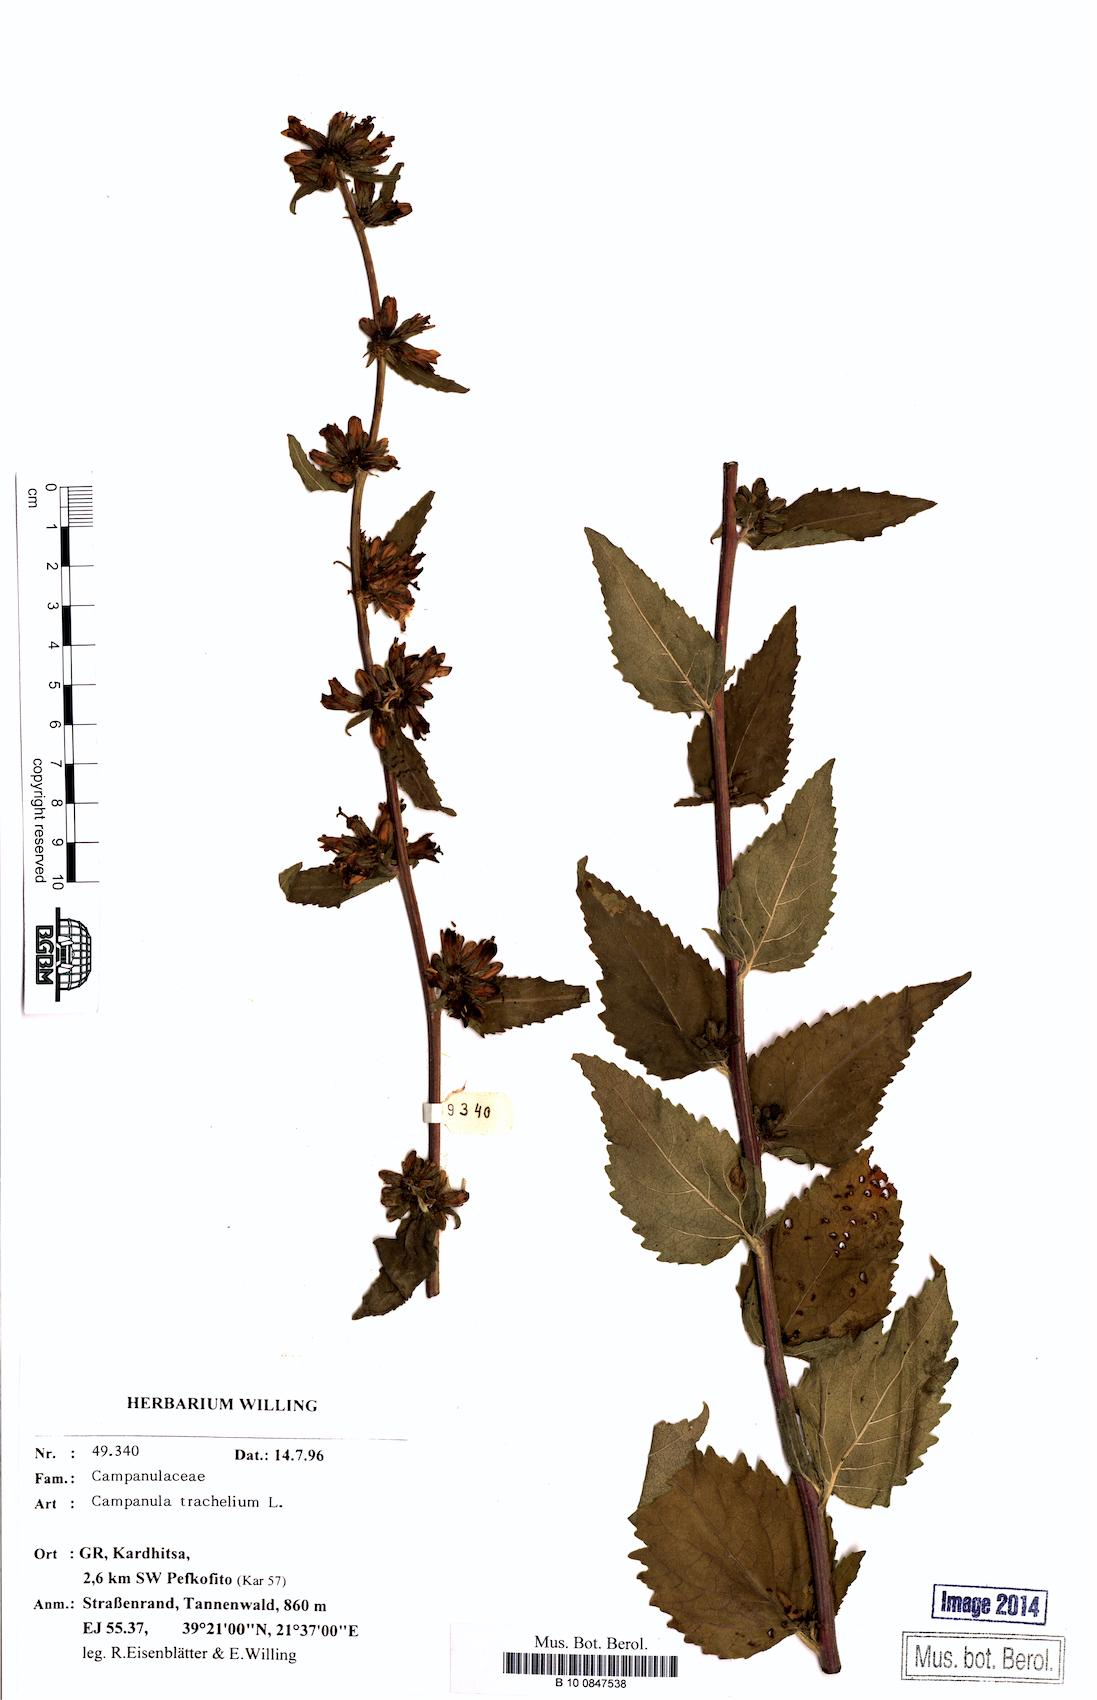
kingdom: Plantae
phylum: Tracheophyta
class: Magnoliopsida
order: Asterales
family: Campanulaceae
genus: Campanula
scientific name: Campanula trachelium
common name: Nettle-leaved bellflower
